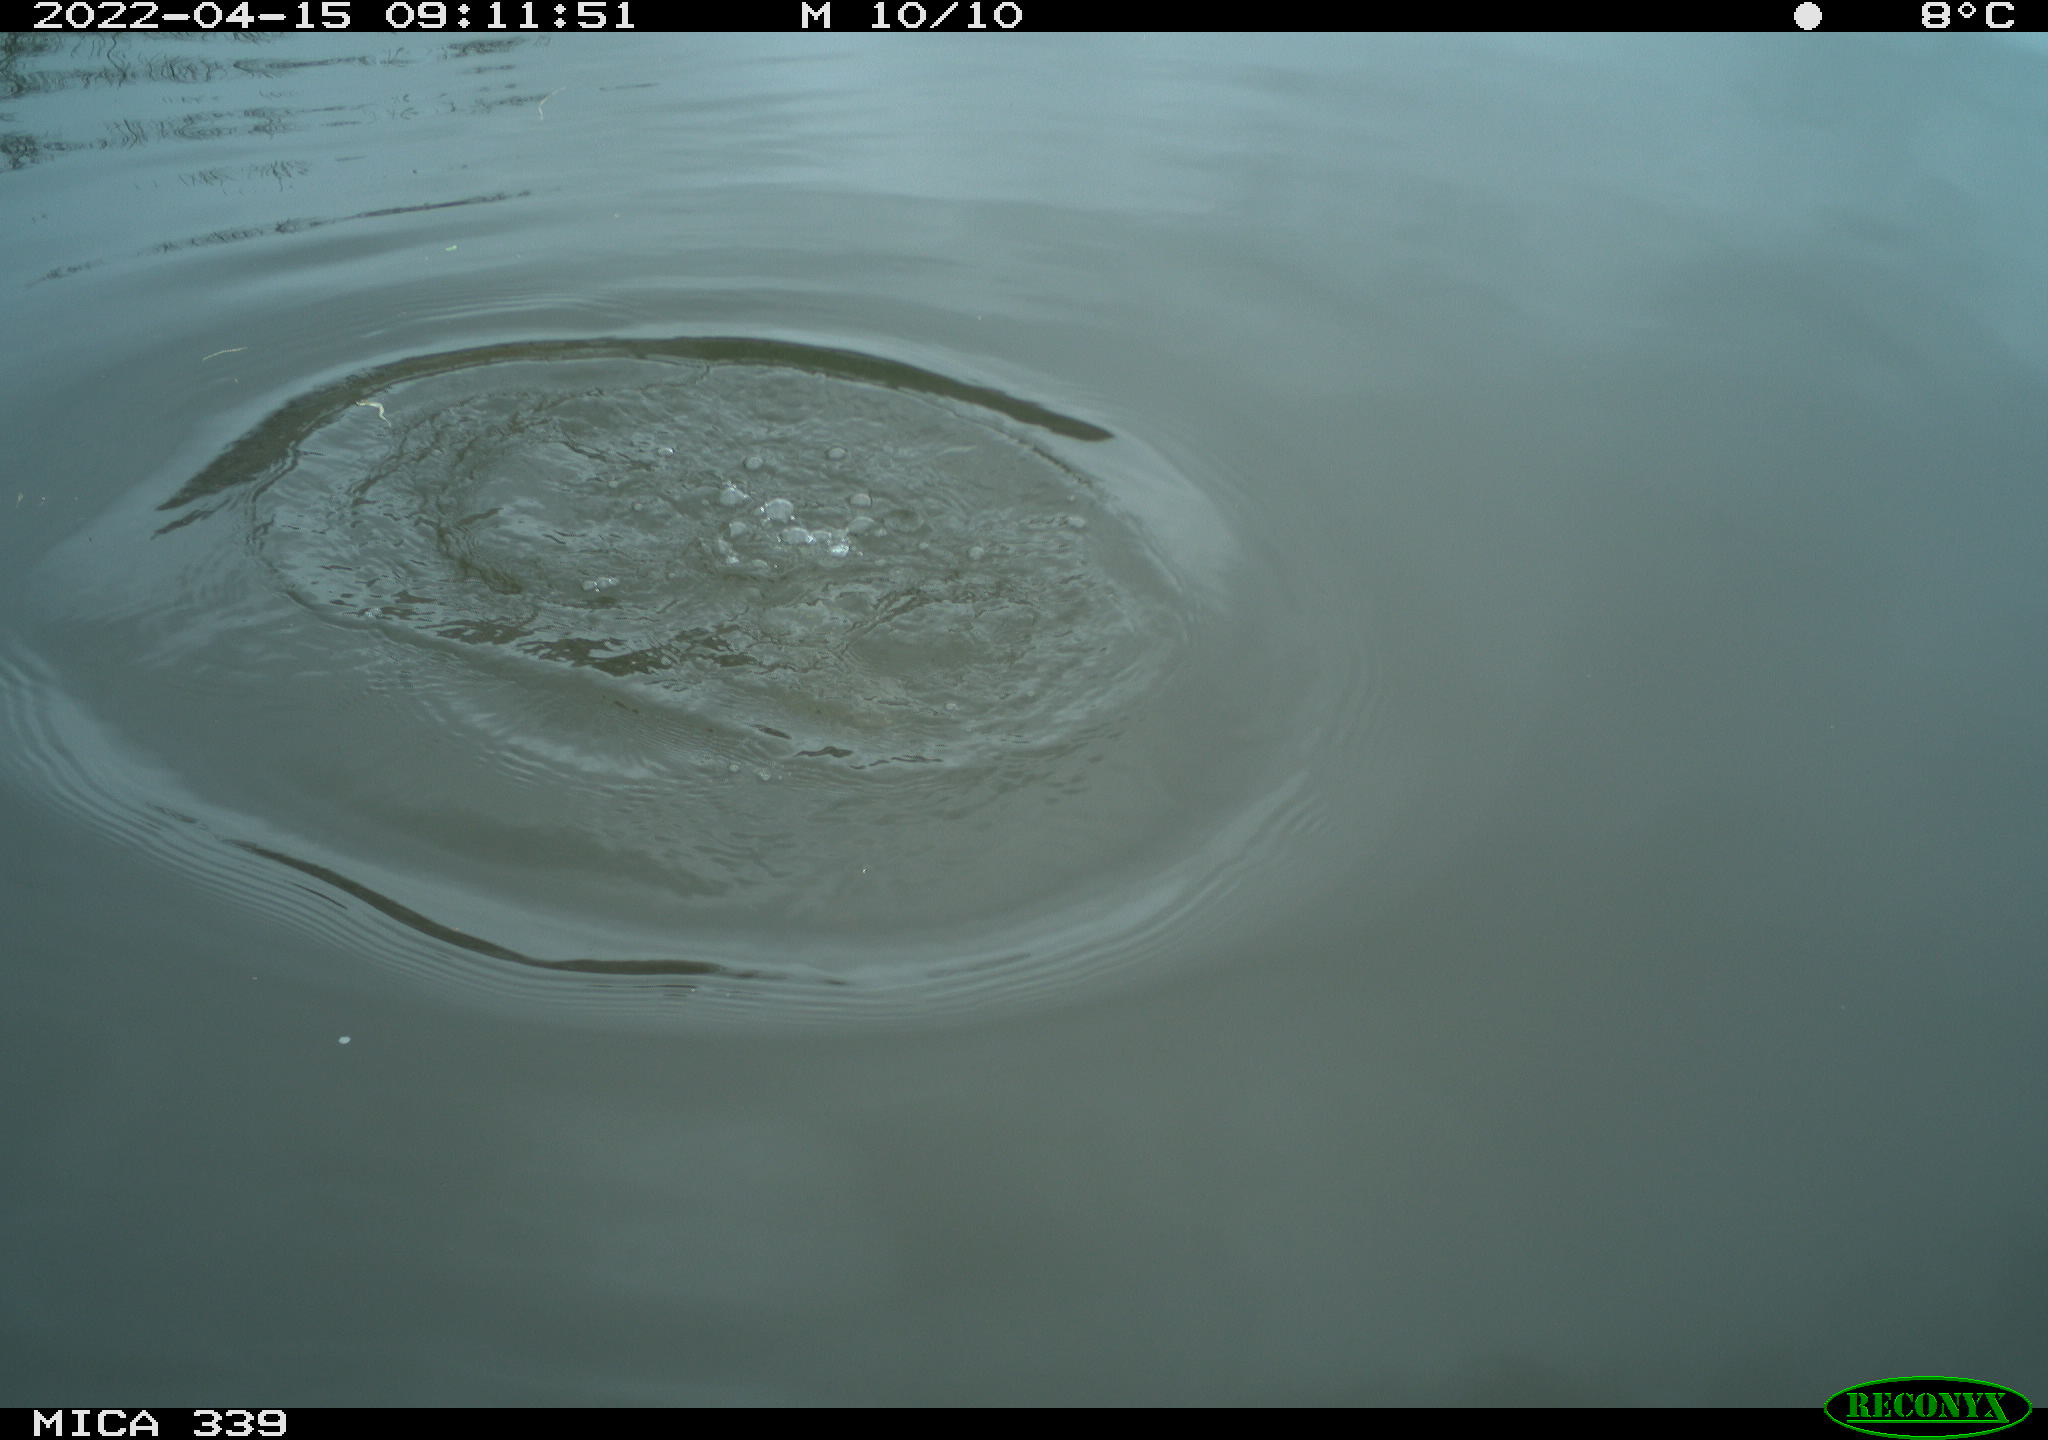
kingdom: Animalia
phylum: Chordata
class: Aves
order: Gruiformes
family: Rallidae
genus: Fulica
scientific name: Fulica atra
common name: Eurasian coot
